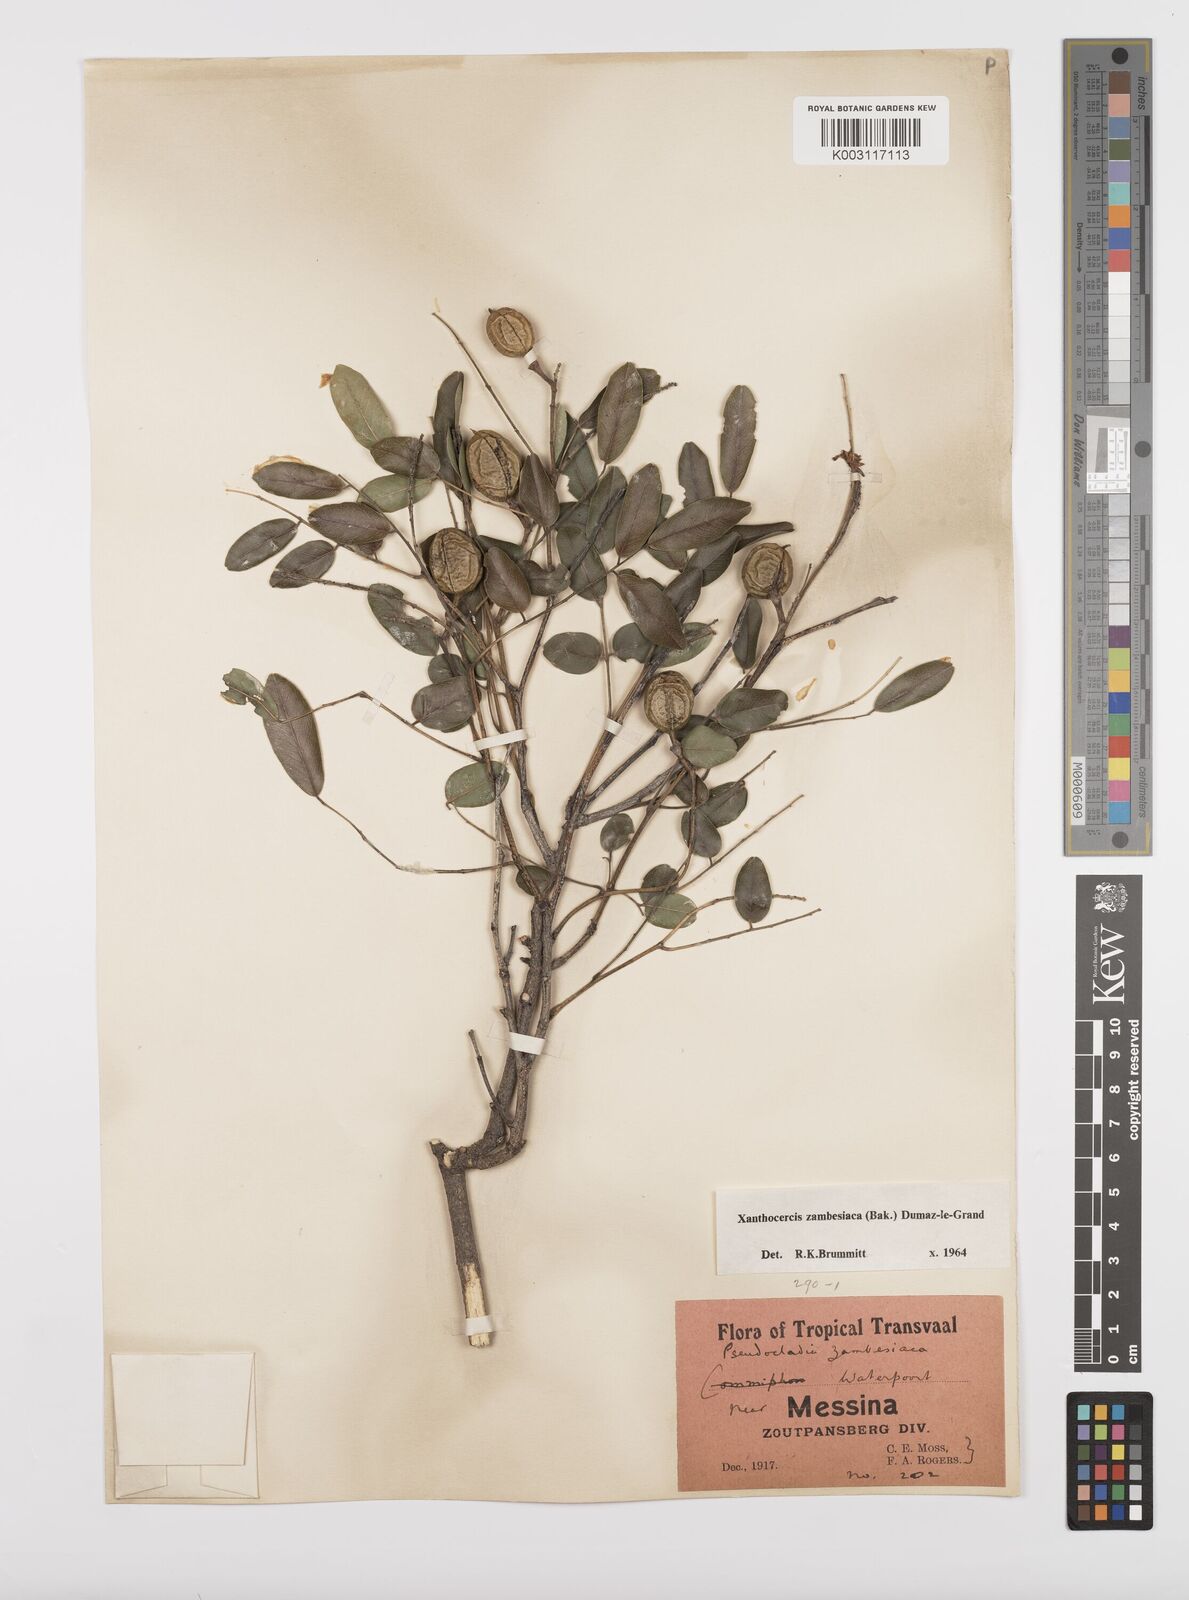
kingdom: Plantae
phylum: Tracheophyta
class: Magnoliopsida
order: Fabales
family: Fabaceae
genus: Xanthocercis
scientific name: Xanthocercis zambesiaca
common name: Nyala-tree
